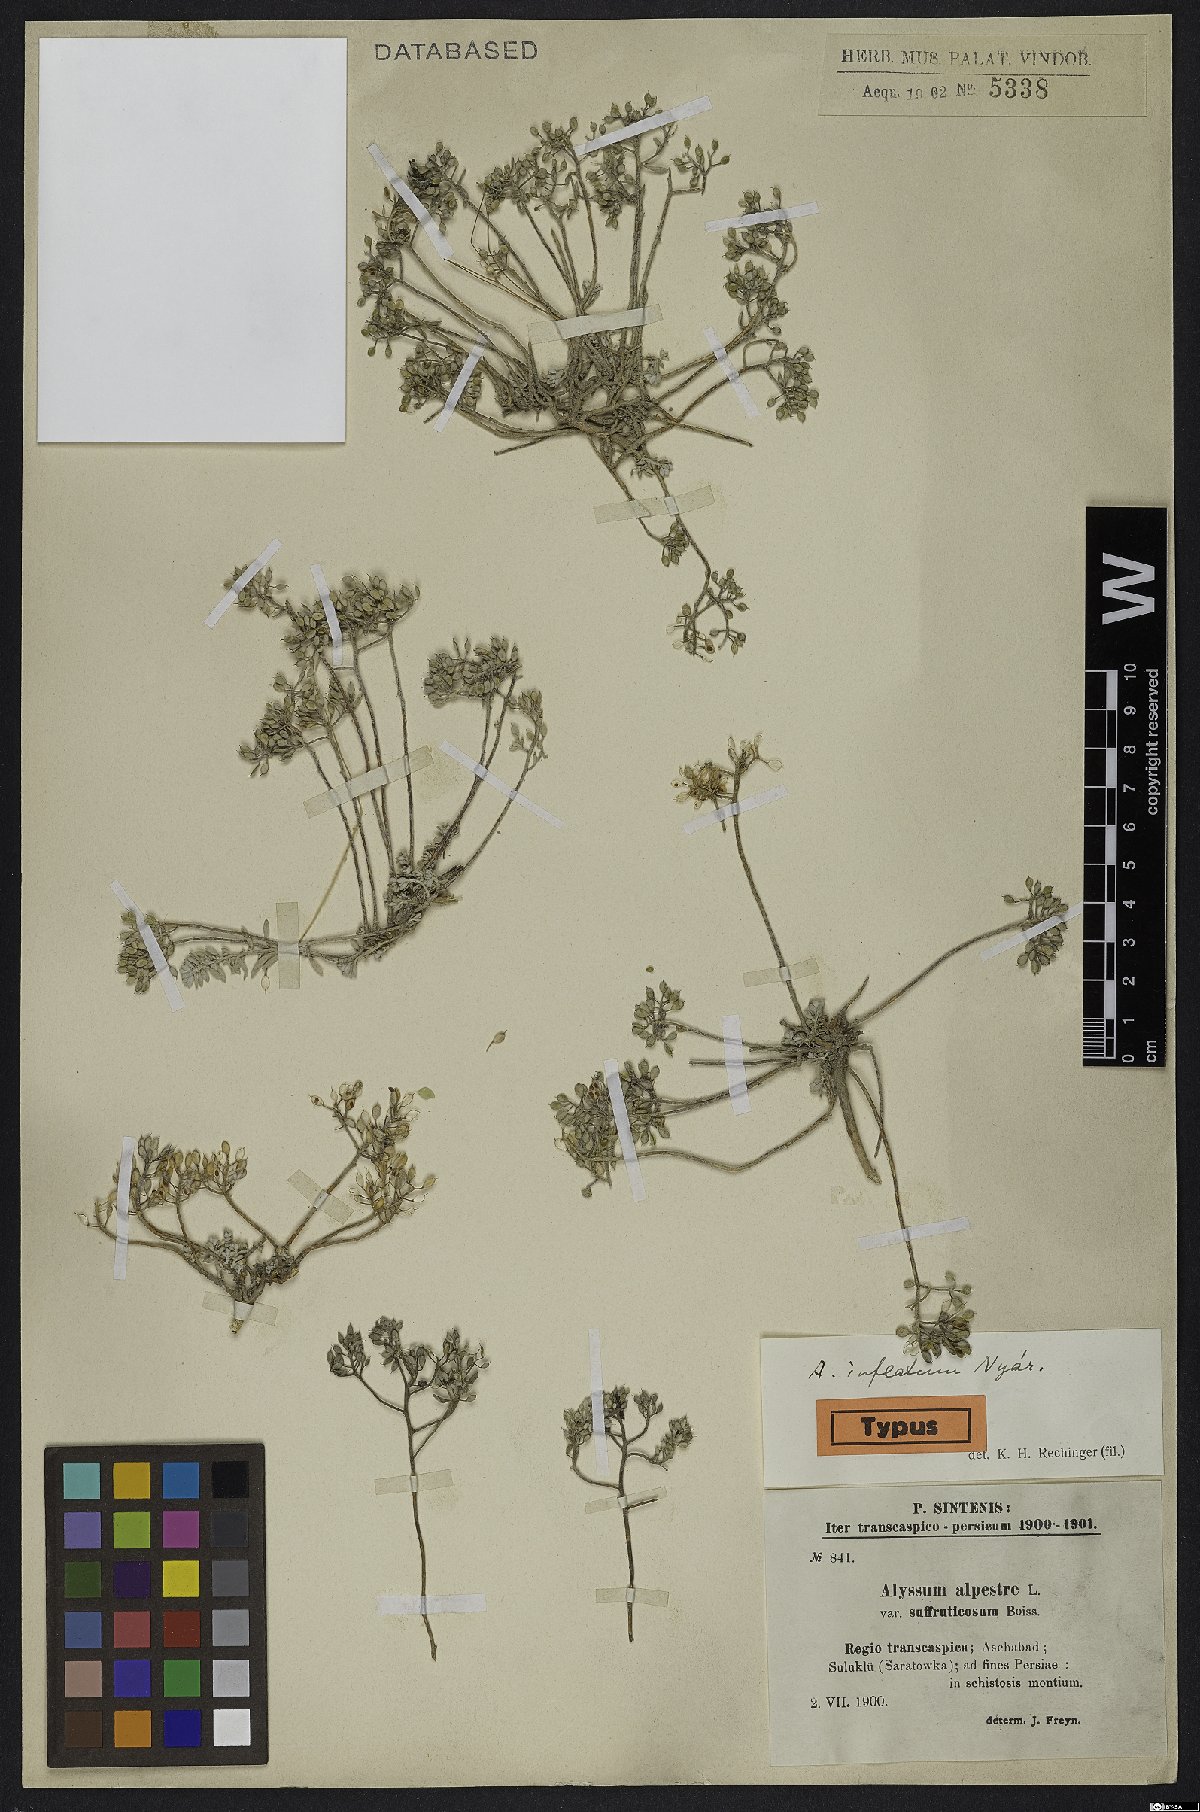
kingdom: Plantae
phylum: Tracheophyta
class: Magnoliopsida
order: Brassicales
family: Brassicaceae
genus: Odontarrhena
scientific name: Odontarrhena inflata
